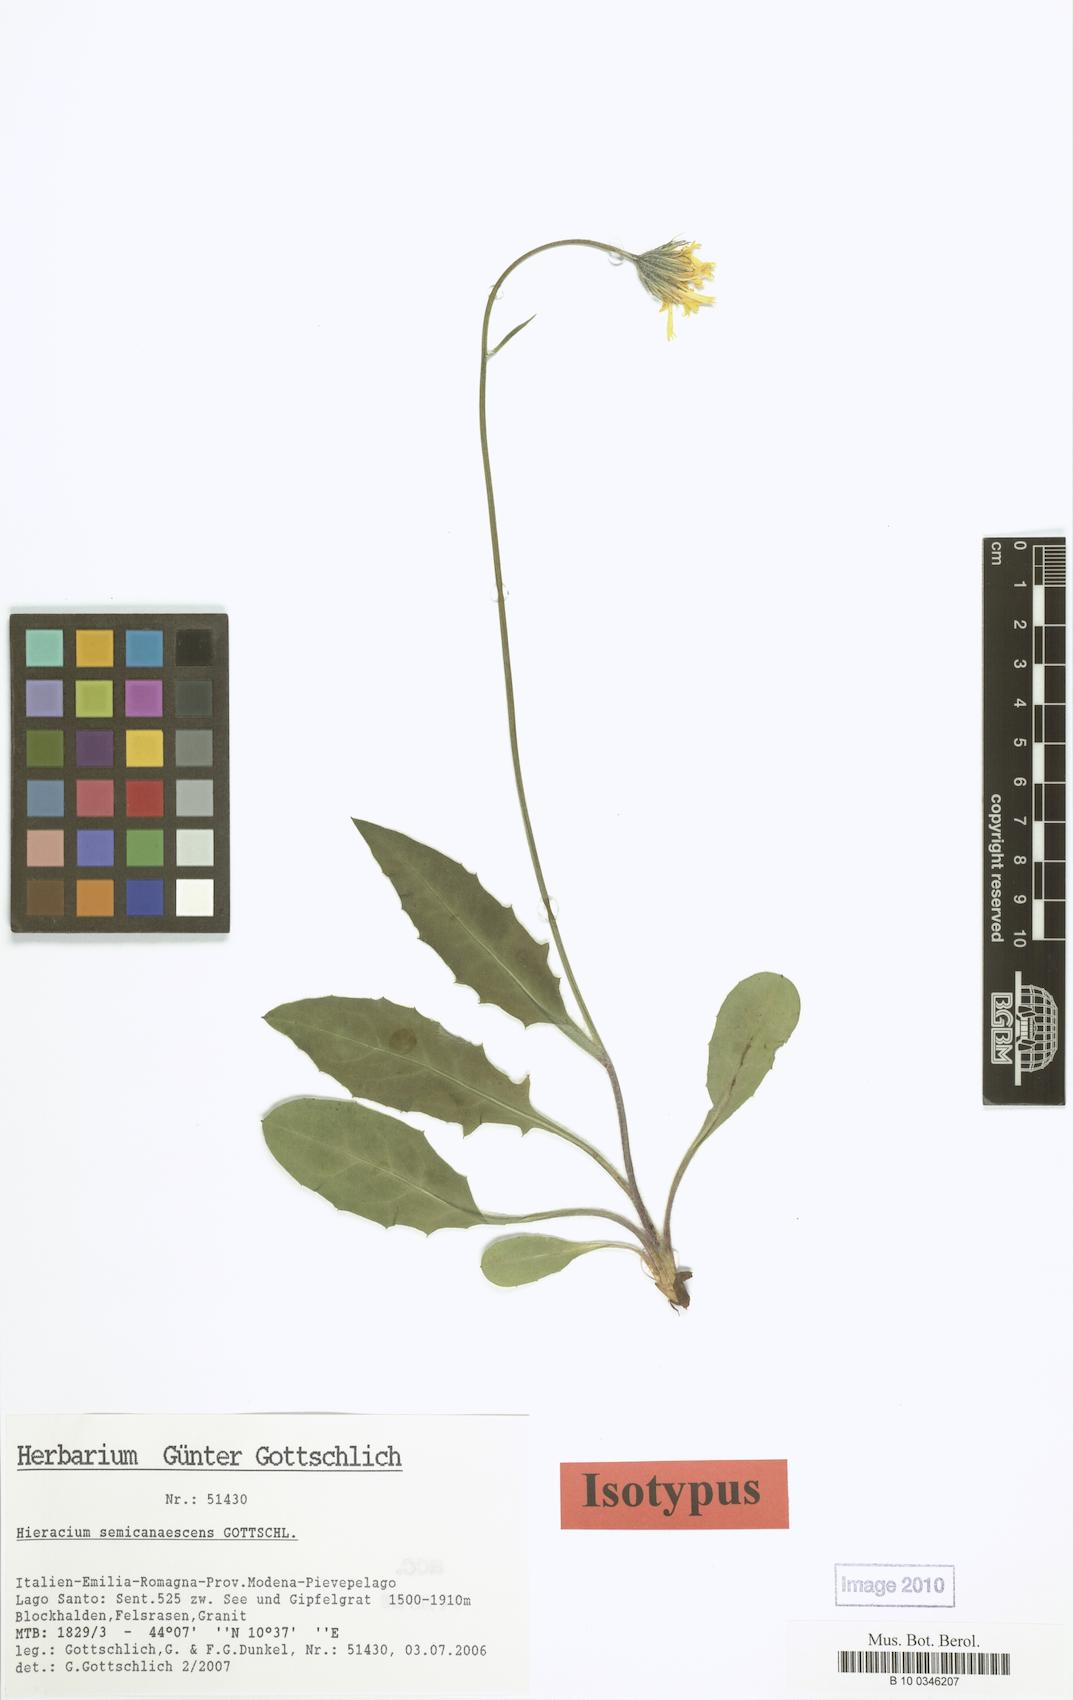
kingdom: Plantae
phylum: Tracheophyta
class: Magnoliopsida
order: Asterales
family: Asteraceae
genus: Hieracium
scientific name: Hieracium semicanescens
